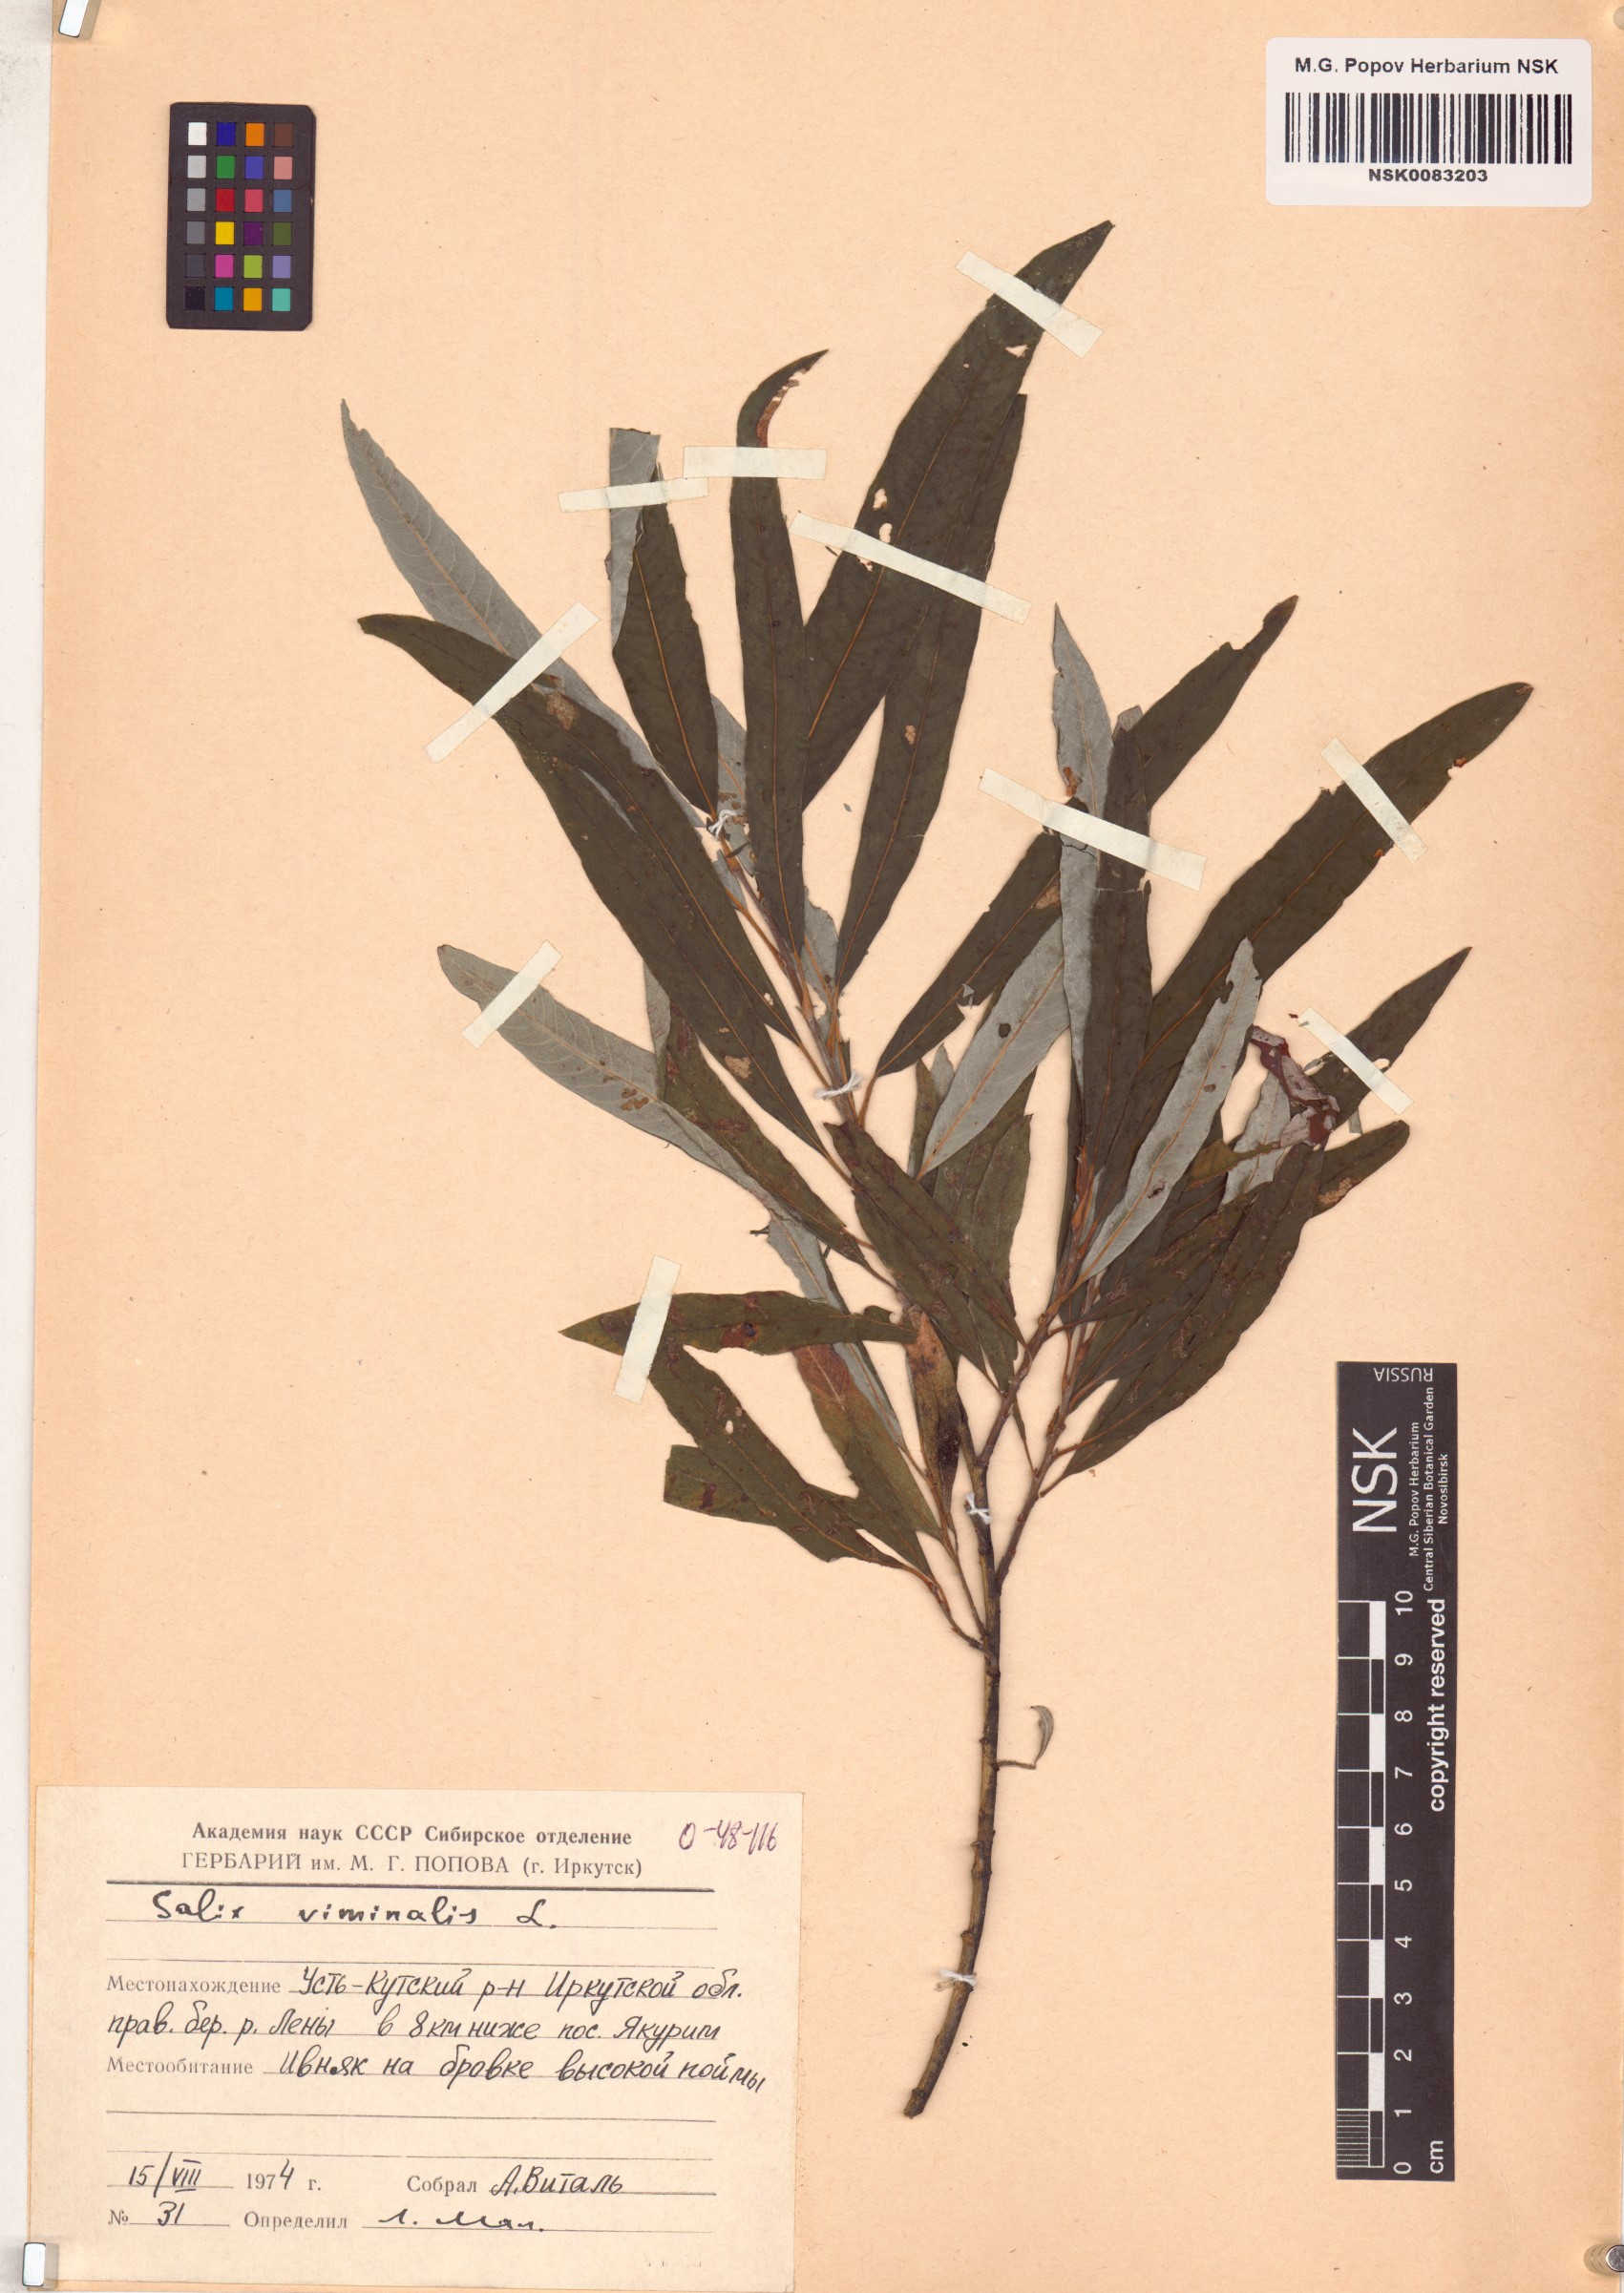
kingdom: Plantae
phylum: Tracheophyta
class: Magnoliopsida
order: Malpighiales
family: Salicaceae
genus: Salix
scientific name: Salix viminalis
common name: Osier
